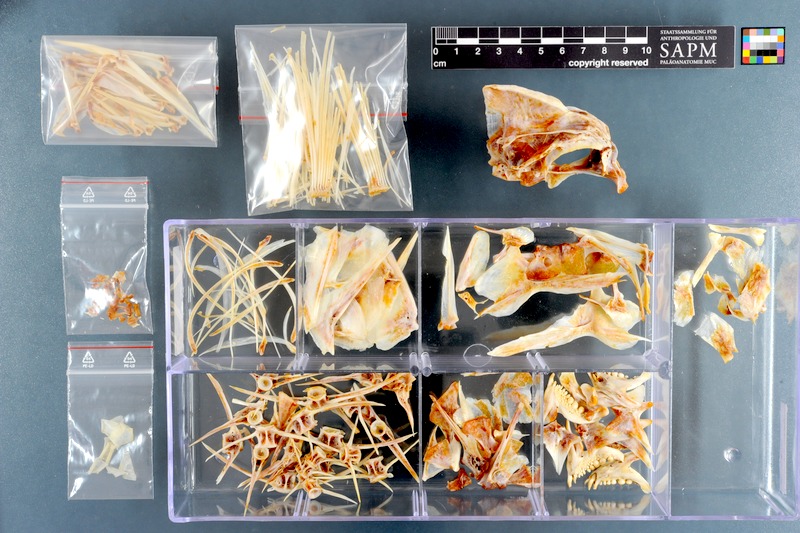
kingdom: Animalia
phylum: Chordata
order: Perciformes
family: Sparidae
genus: Chrysoblephus
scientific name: Chrysoblephus anglicus
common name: Englishman
